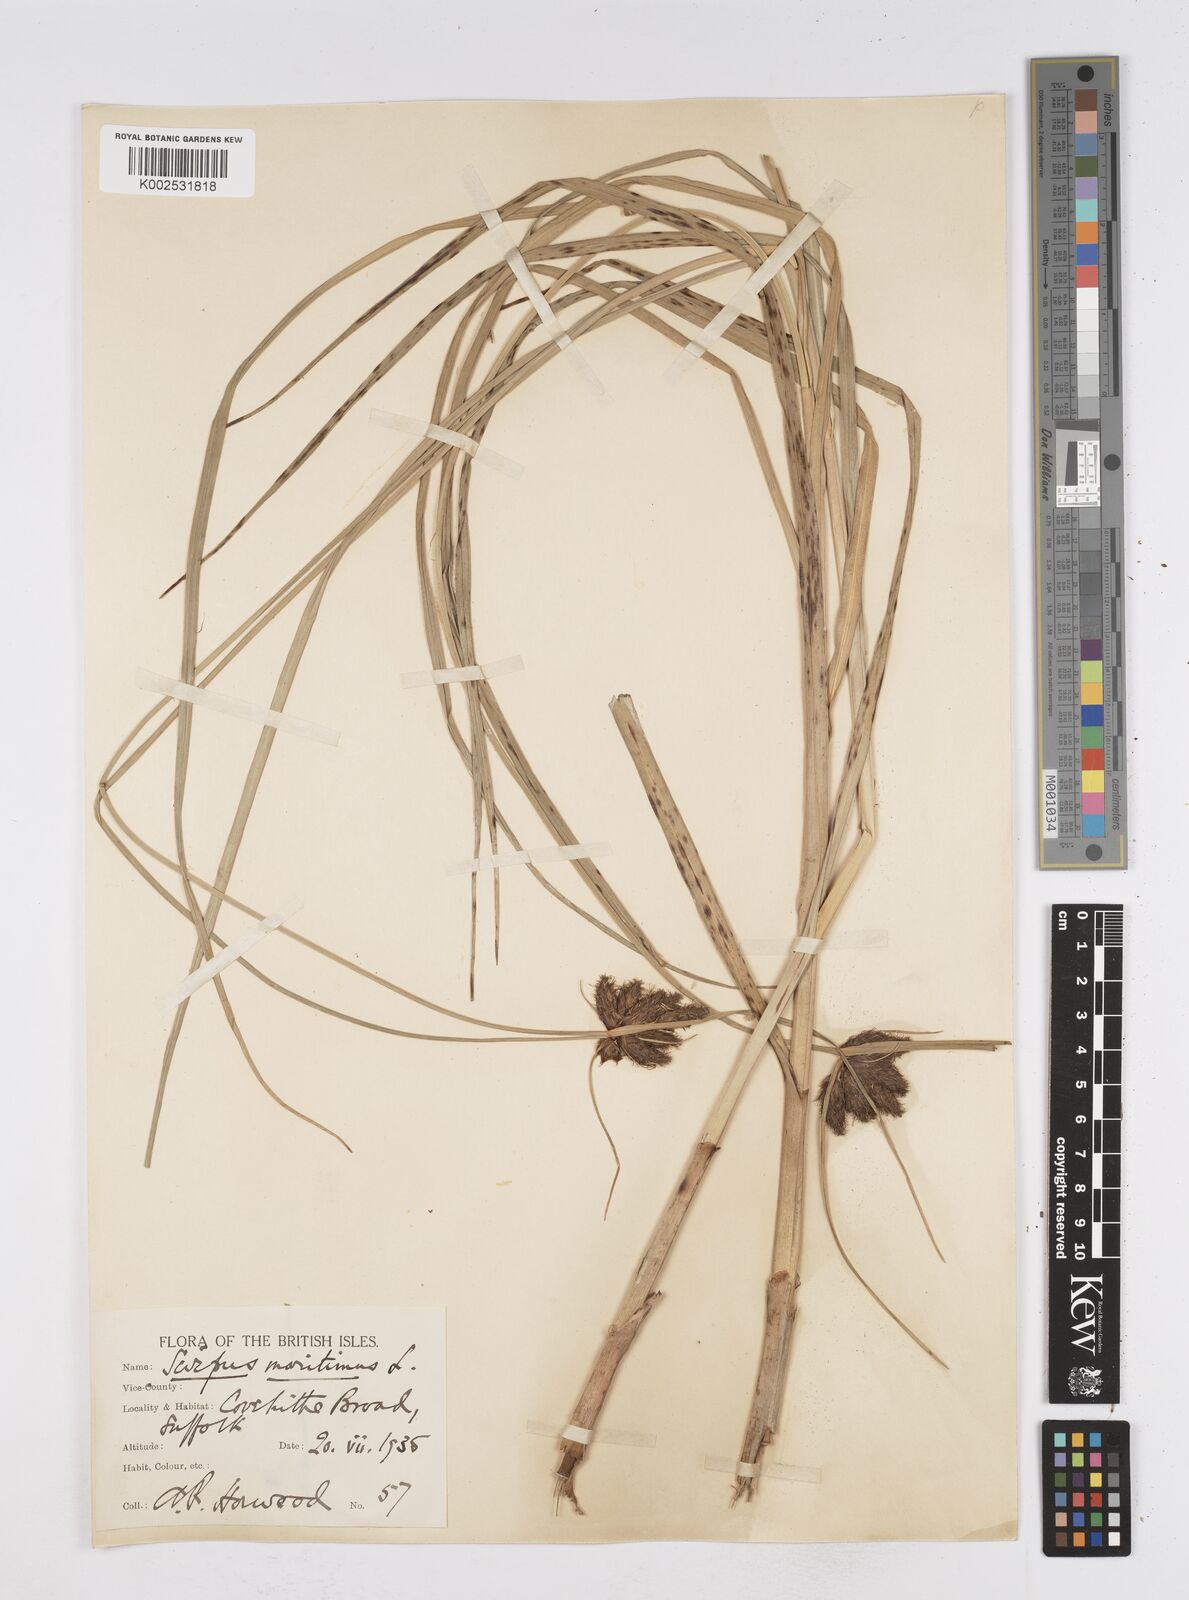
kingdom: Plantae
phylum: Tracheophyta
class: Liliopsida
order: Poales
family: Cyperaceae
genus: Bolboschoenus
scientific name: Bolboschoenus maritimus
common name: Sea club-rush
